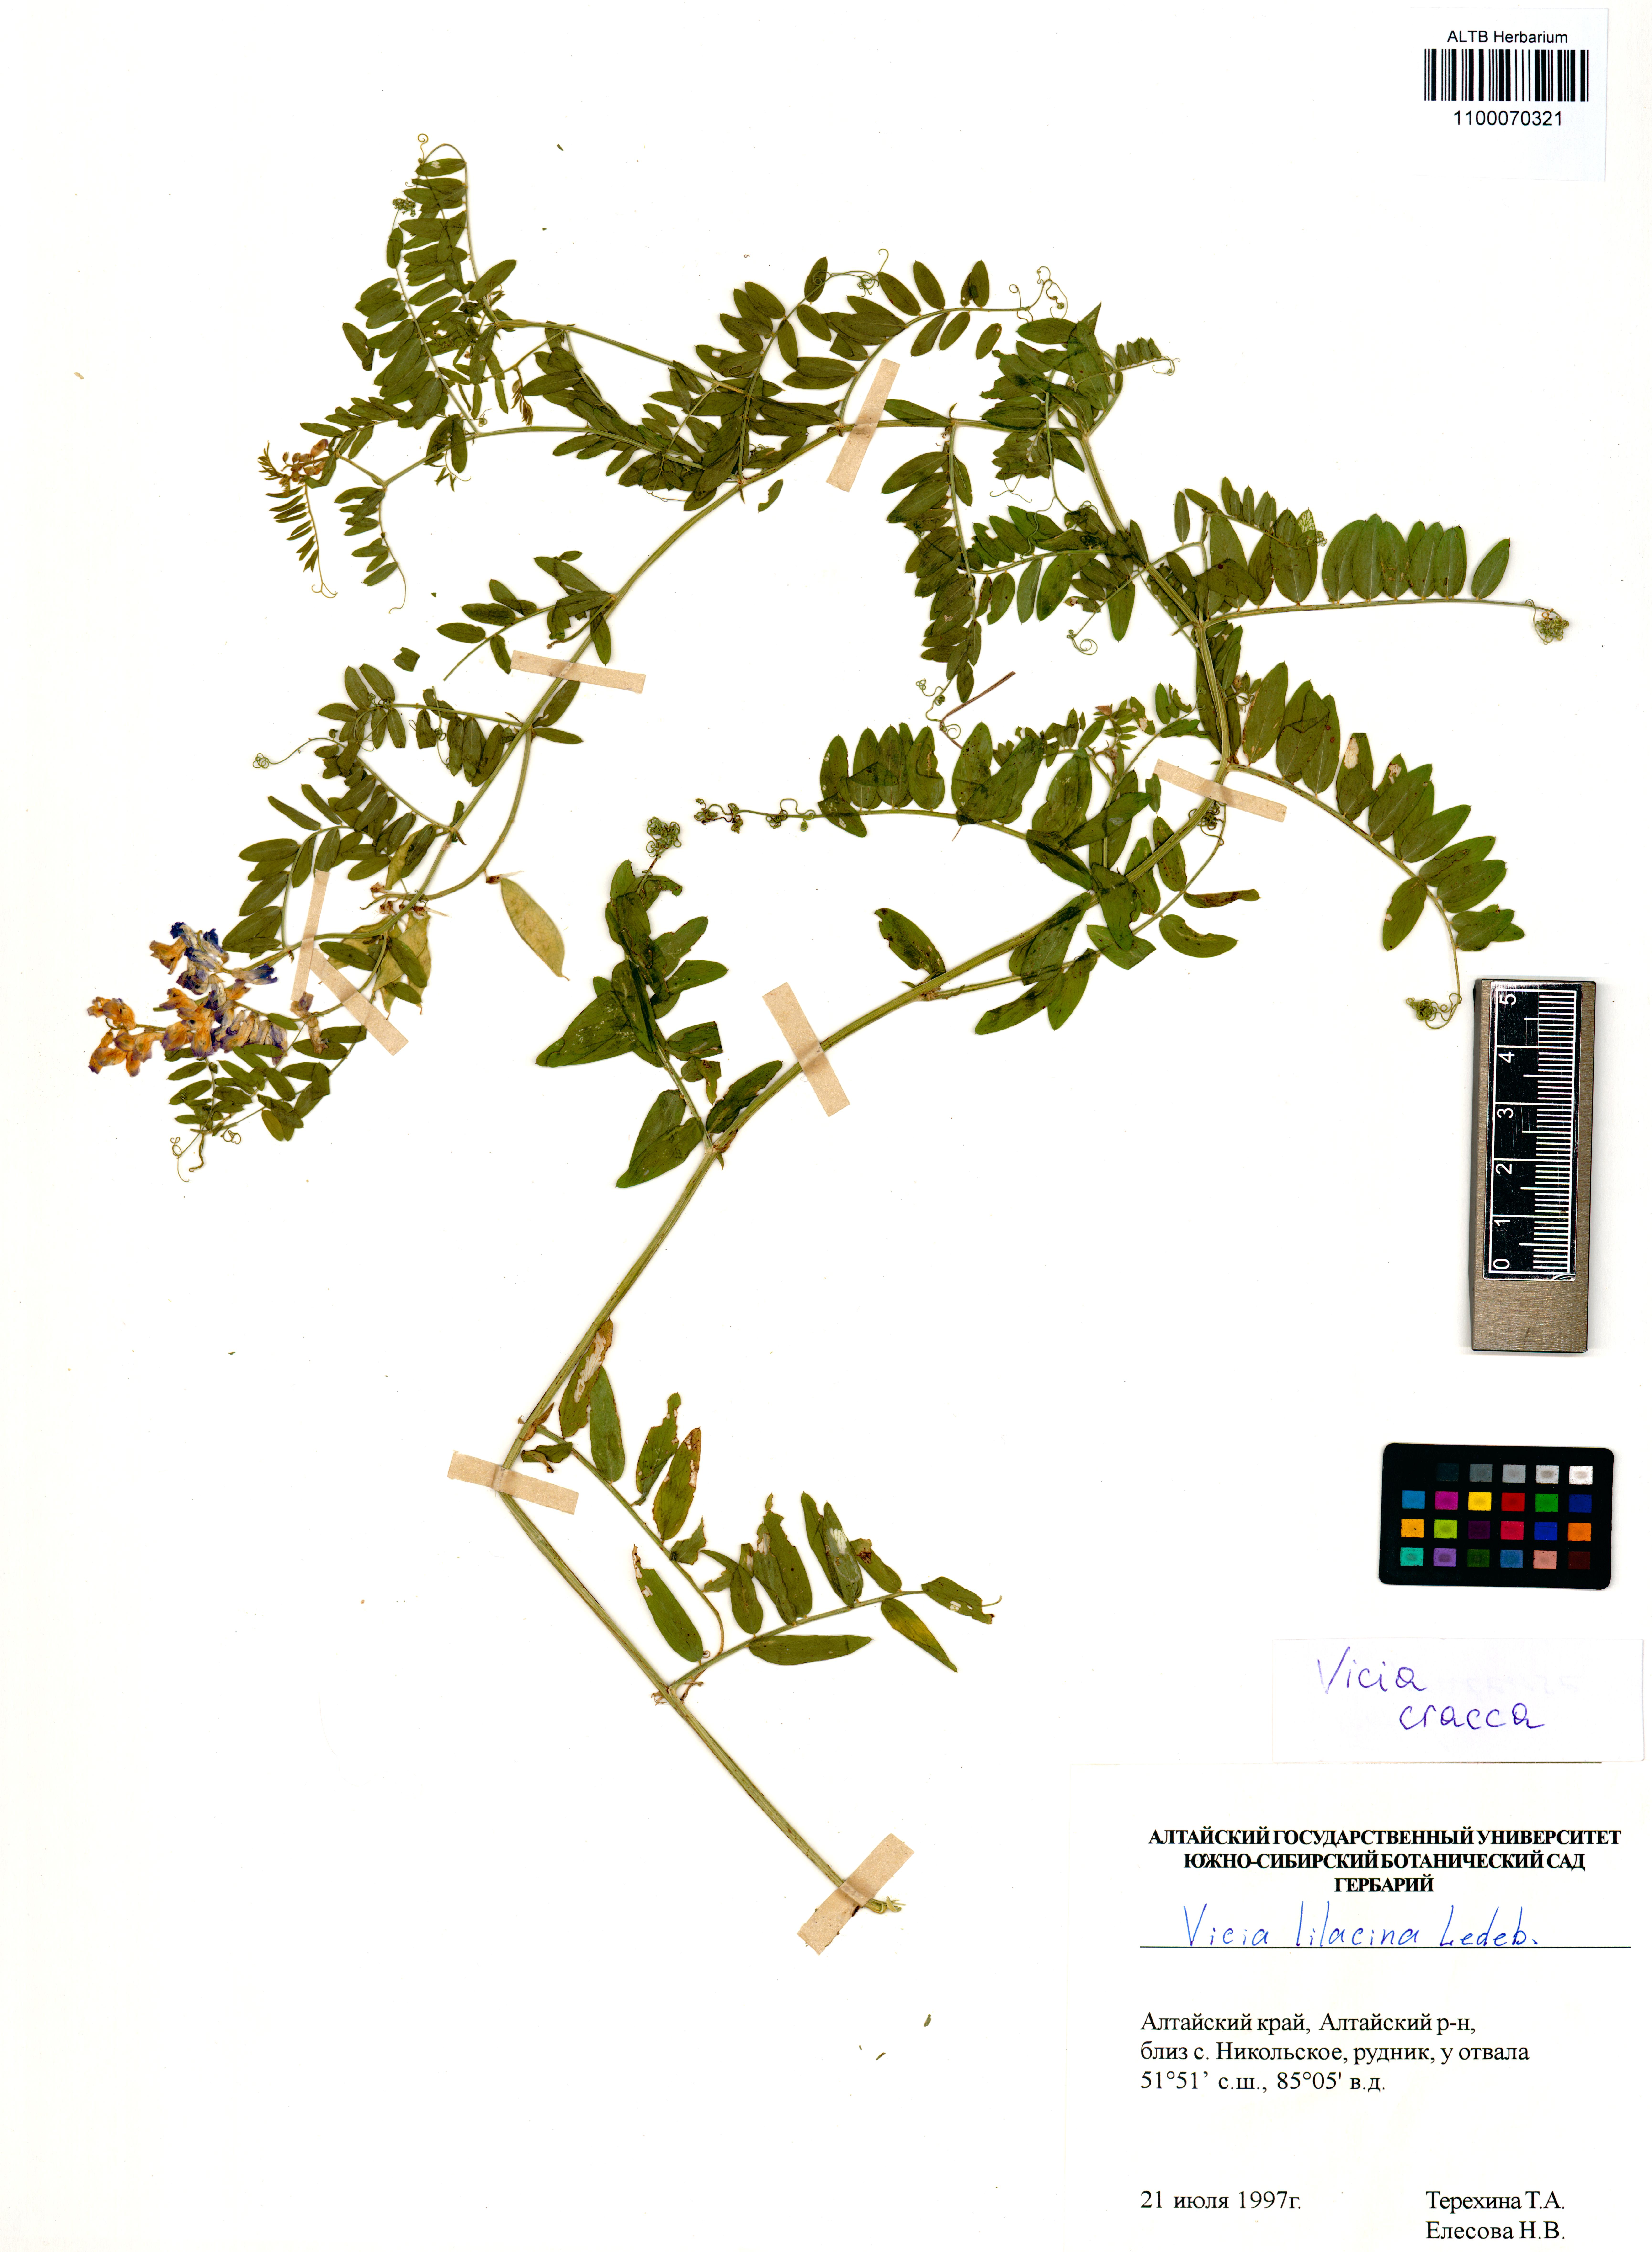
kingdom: Plantae
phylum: Tracheophyta
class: Magnoliopsida
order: Fabales
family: Fabaceae
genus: Vicia
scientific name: Vicia cracca
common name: Bird vetch
